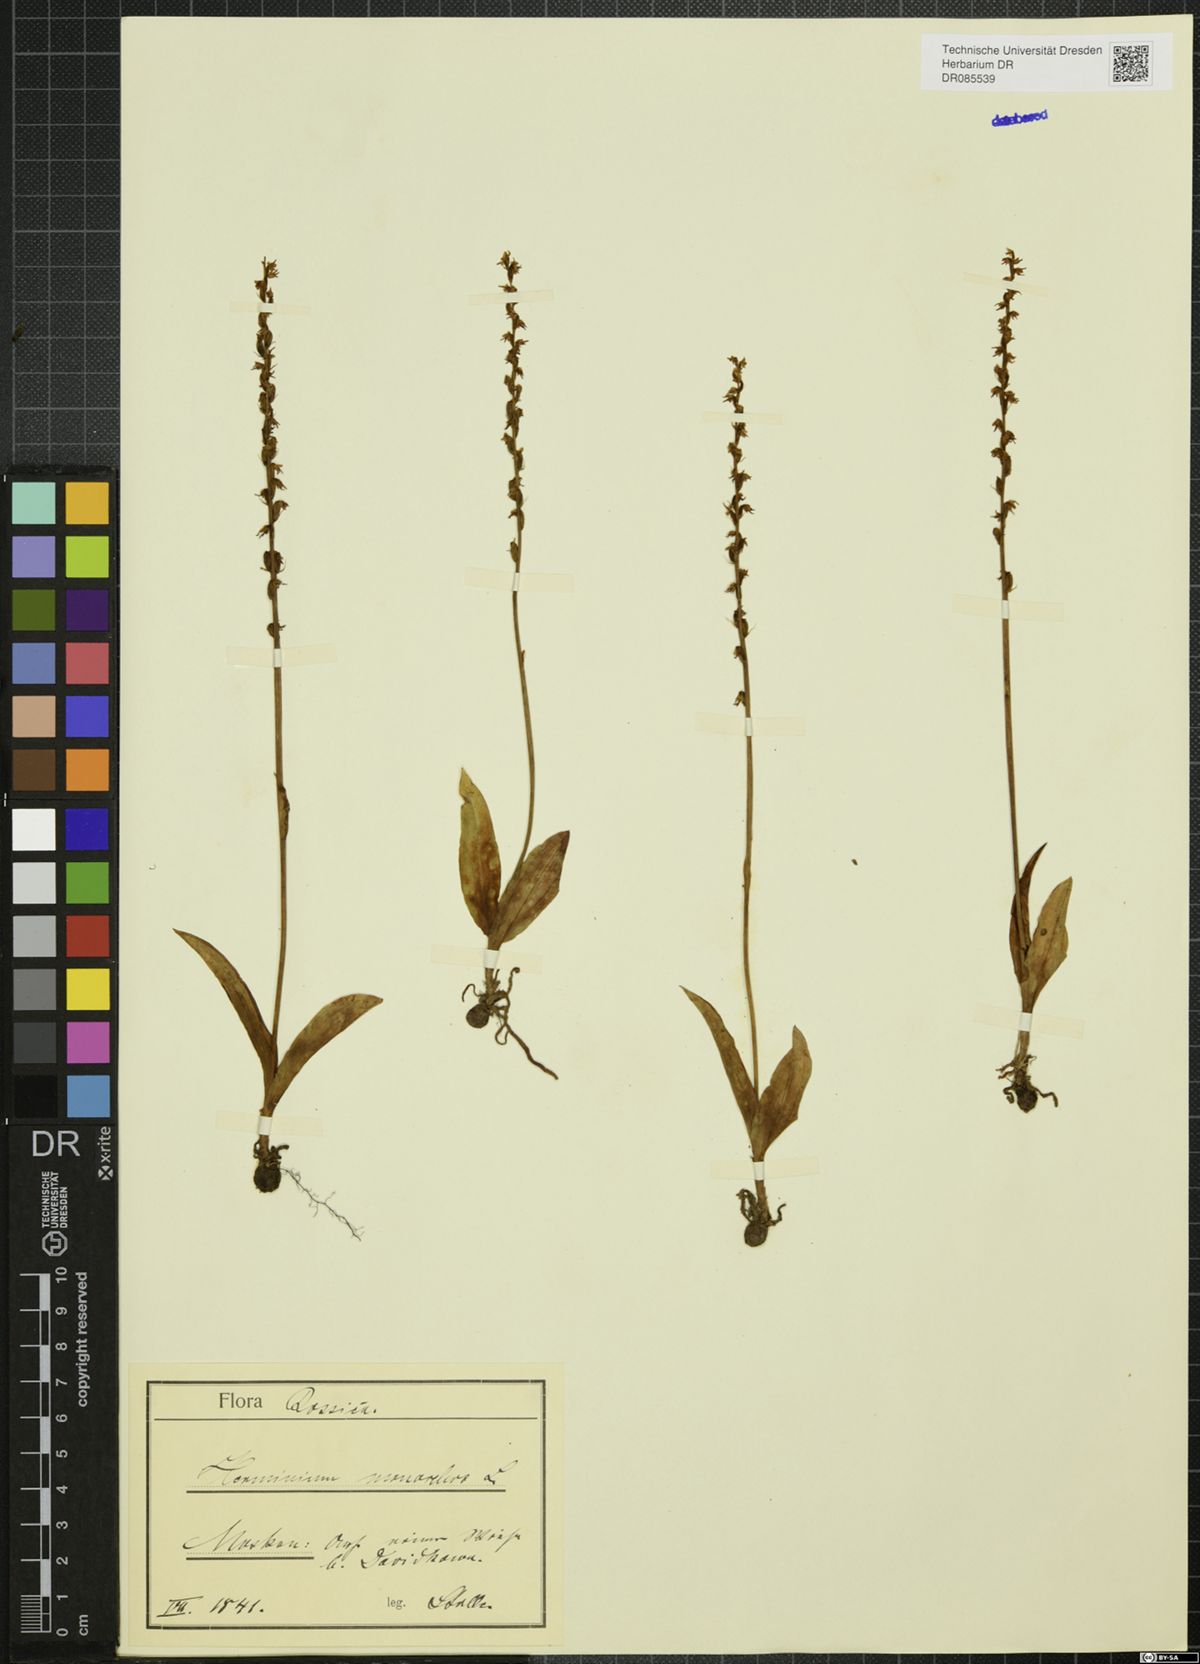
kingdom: Plantae
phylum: Tracheophyta
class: Liliopsida
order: Asparagales
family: Orchidaceae
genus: Herminium
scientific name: Herminium monorchis
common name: Musk orchid
